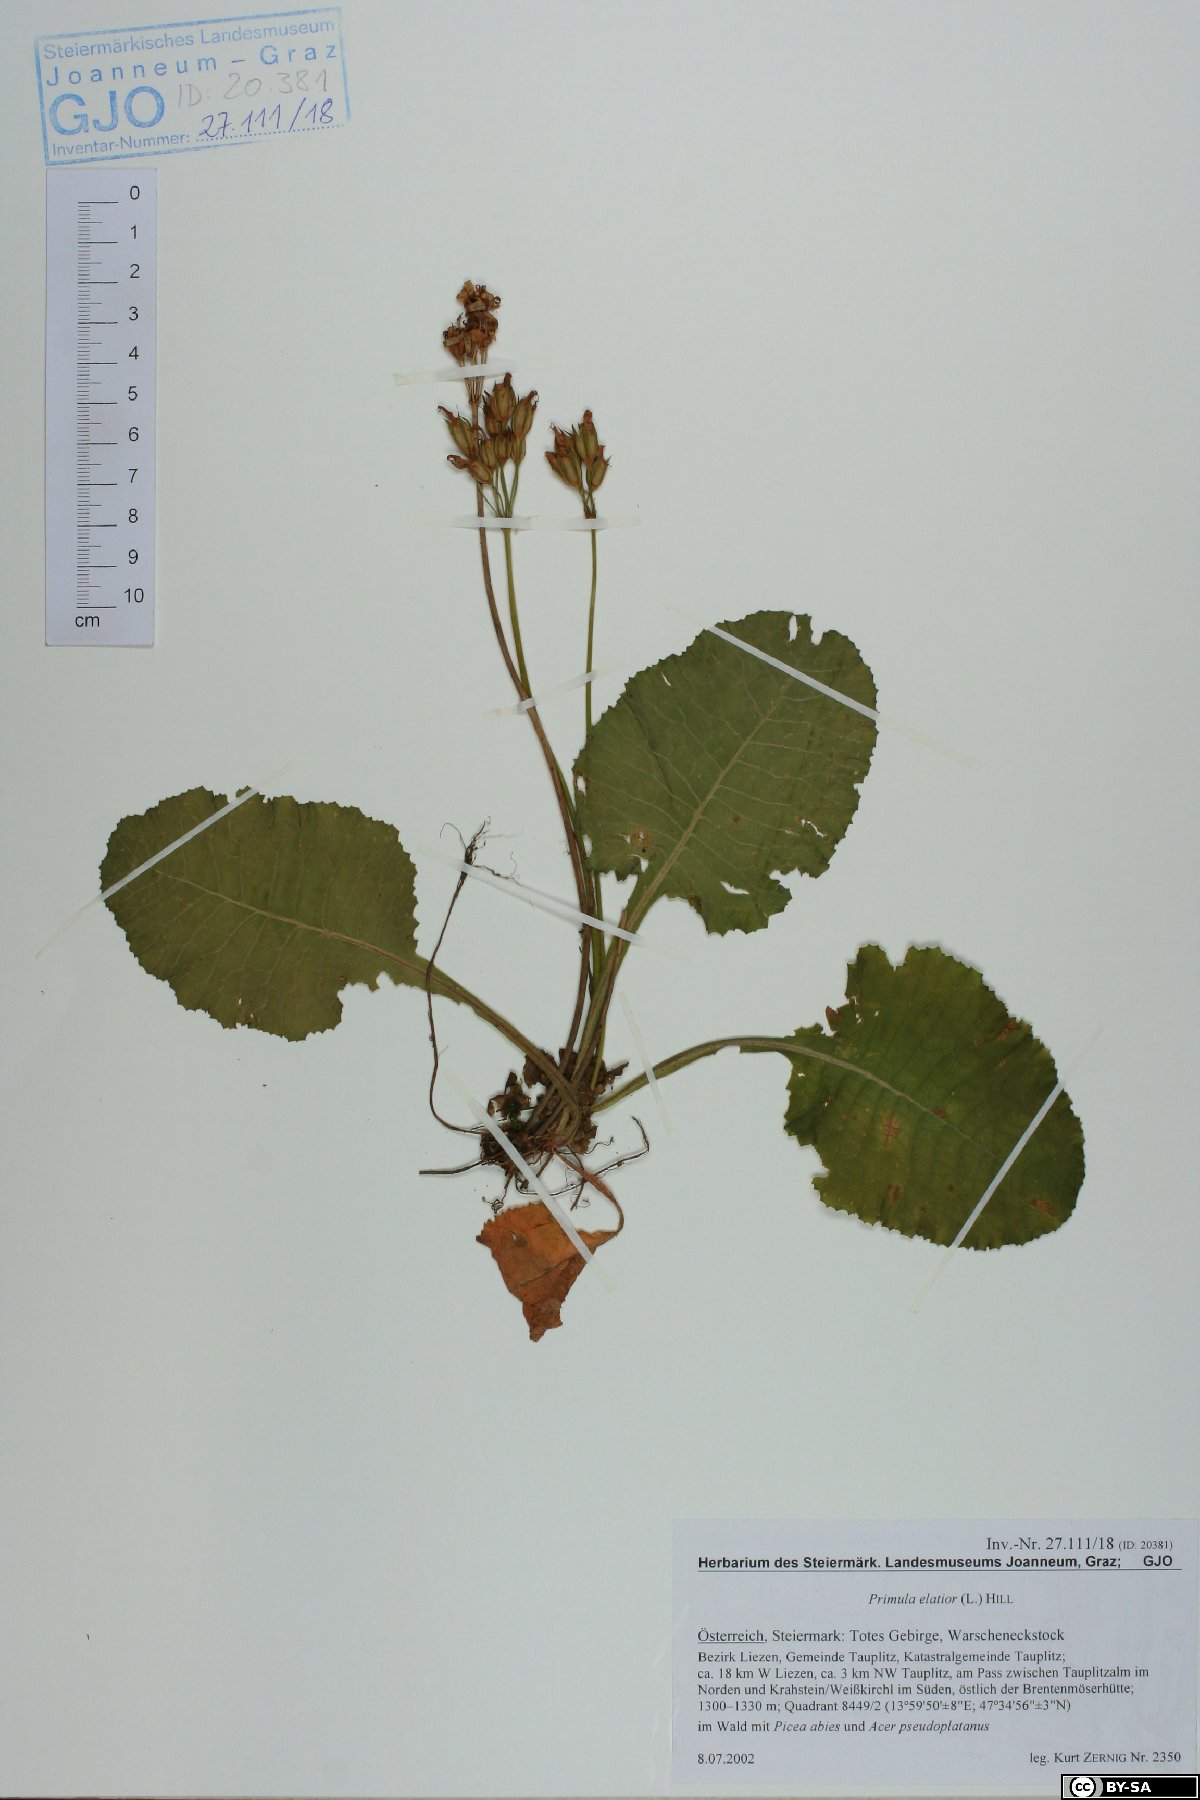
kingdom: Plantae
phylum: Tracheophyta
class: Magnoliopsida
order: Ericales
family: Primulaceae
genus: Primula
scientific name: Primula elatior
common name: Oxlip
